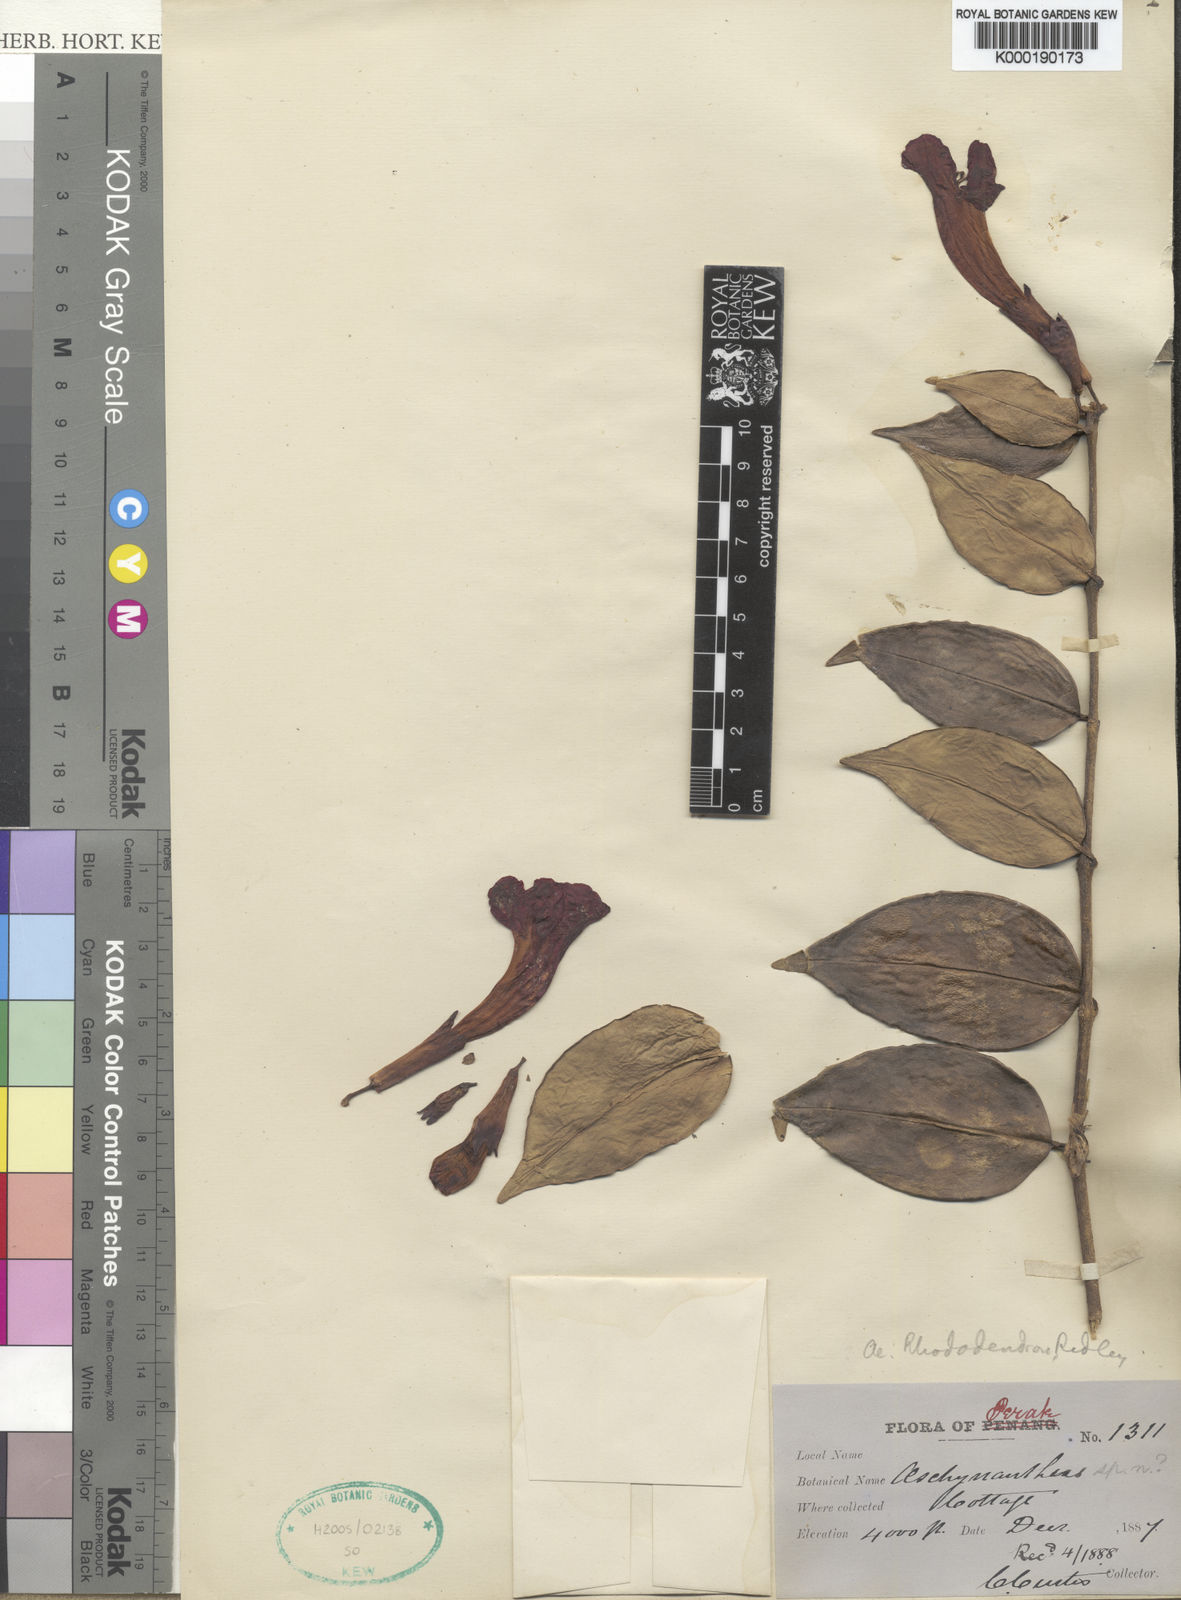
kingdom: Plantae
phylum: Tracheophyta
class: Magnoliopsida
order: Lamiales
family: Gesneriaceae
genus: Aeschynanthus
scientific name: Aeschynanthus rhododendron
